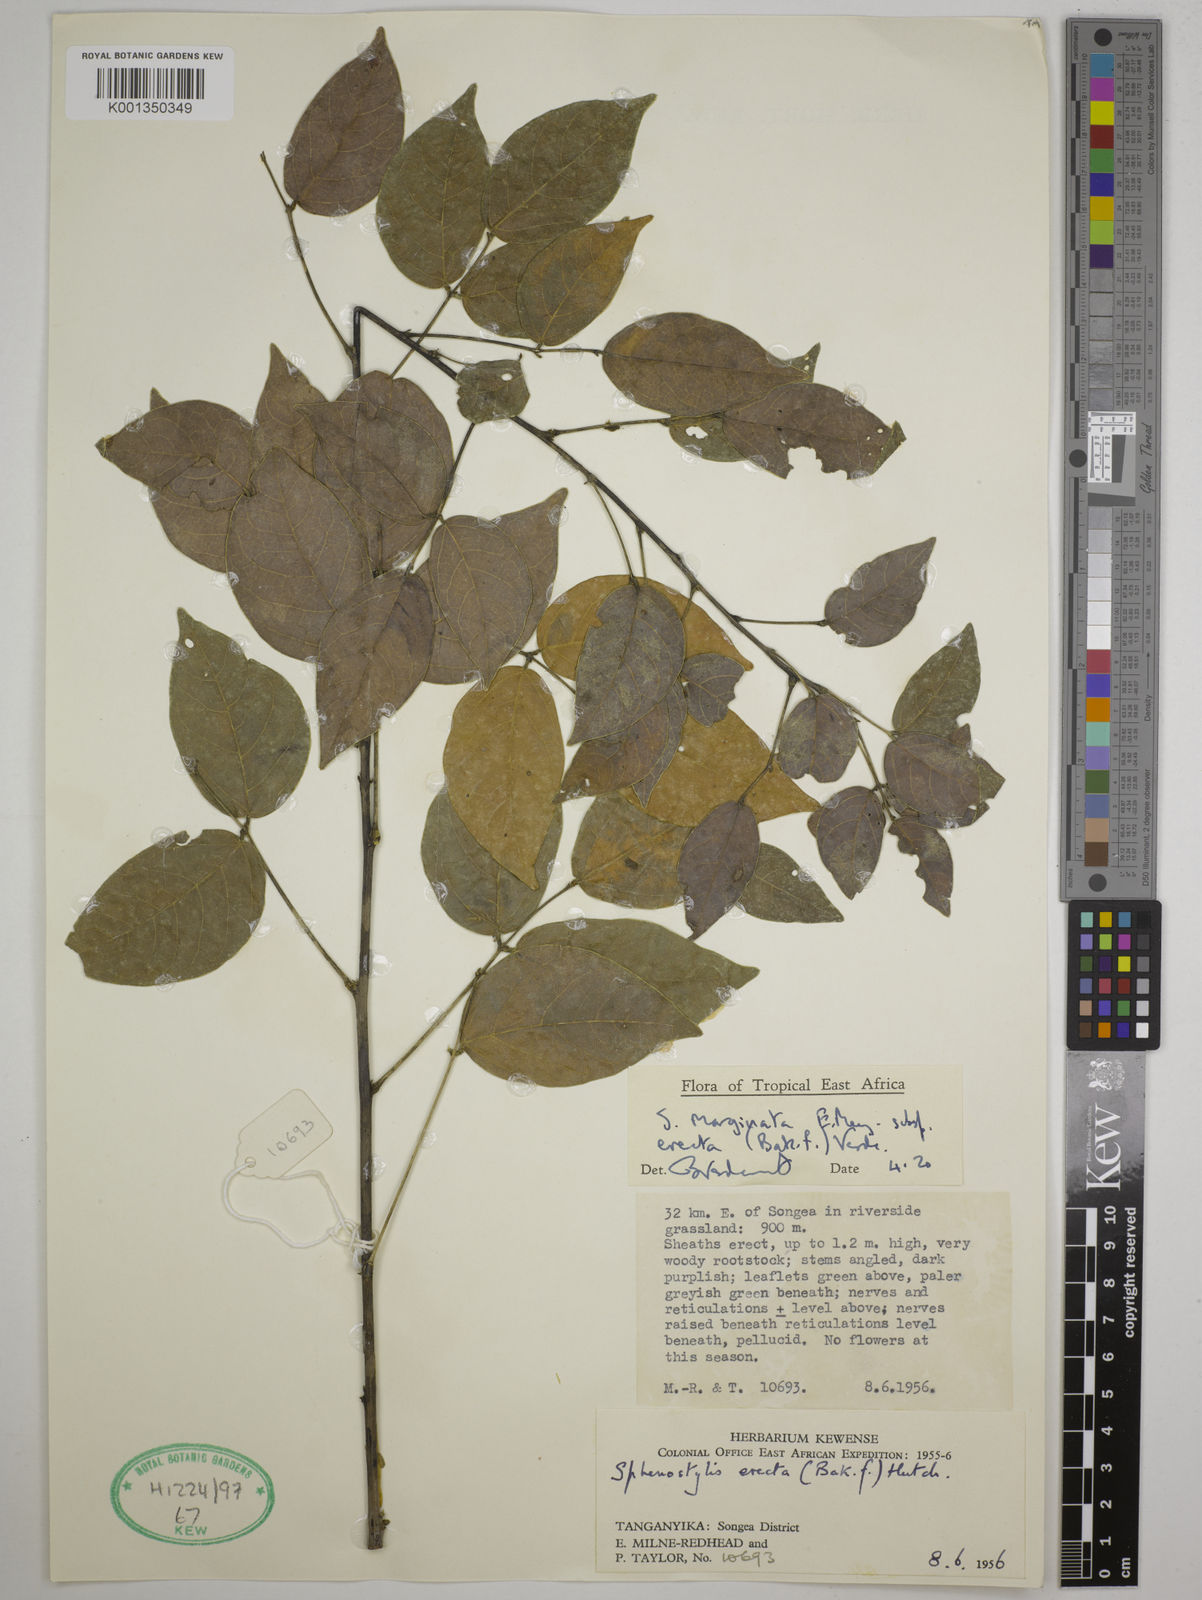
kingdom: Plantae
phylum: Tracheophyta
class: Magnoliopsida
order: Fabales
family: Fabaceae
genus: Sphenostylis
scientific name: Sphenostylis erecta
